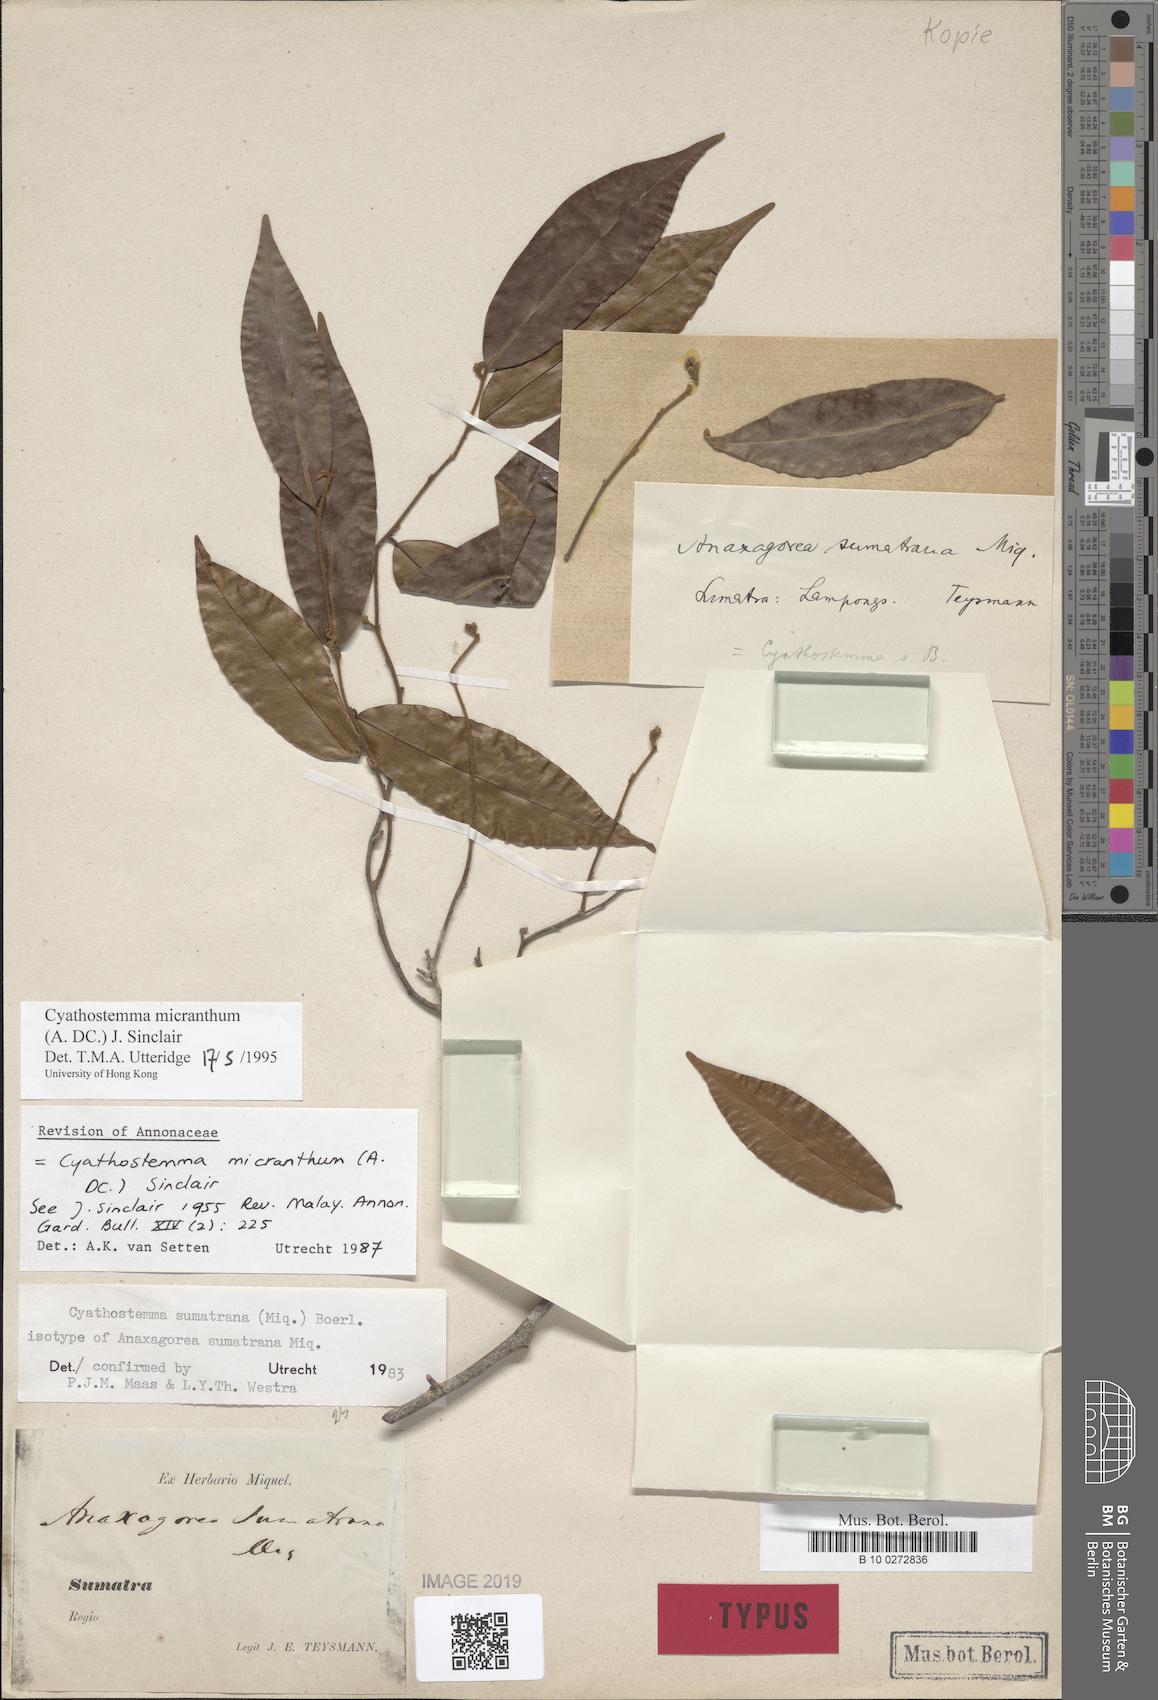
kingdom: Plantae
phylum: Tracheophyta
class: Magnoliopsida
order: Magnoliales
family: Annonaceae
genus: Uvaria
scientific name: Uvaria micrantha
